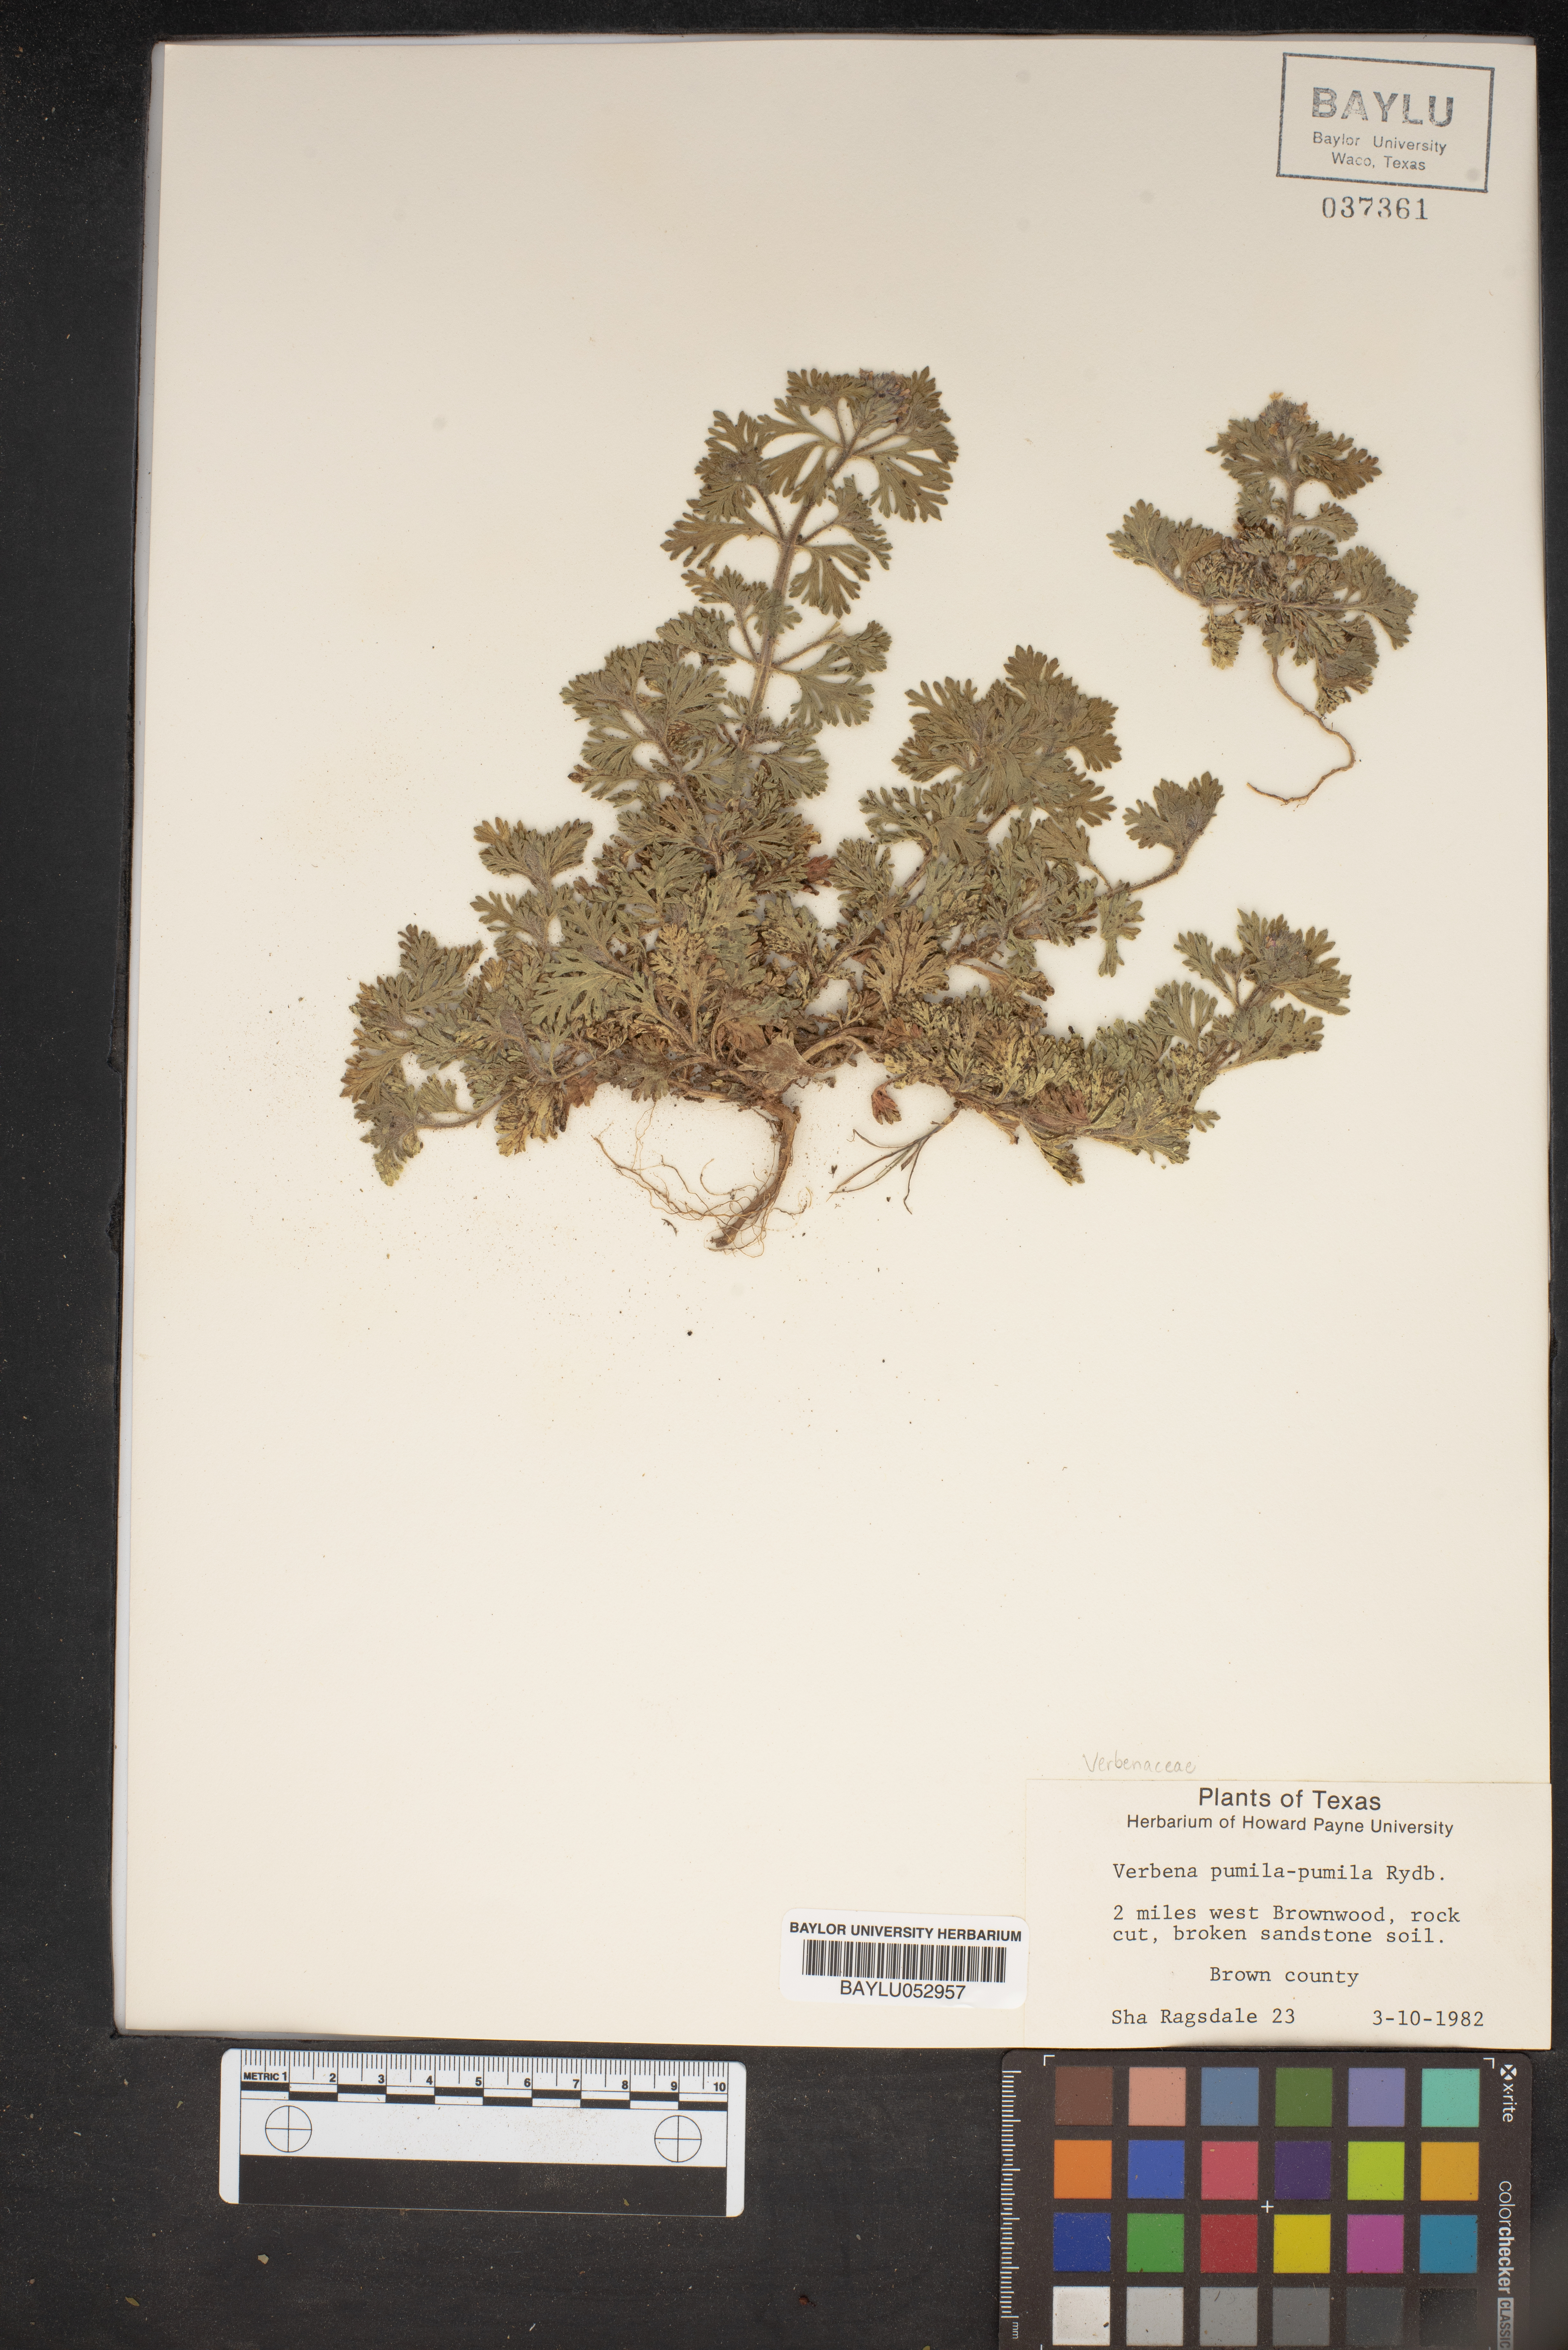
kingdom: Plantae
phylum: Tracheophyta
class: Magnoliopsida
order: Lamiales
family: Verbenaceae
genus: Verbena
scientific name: Verbena pumila
